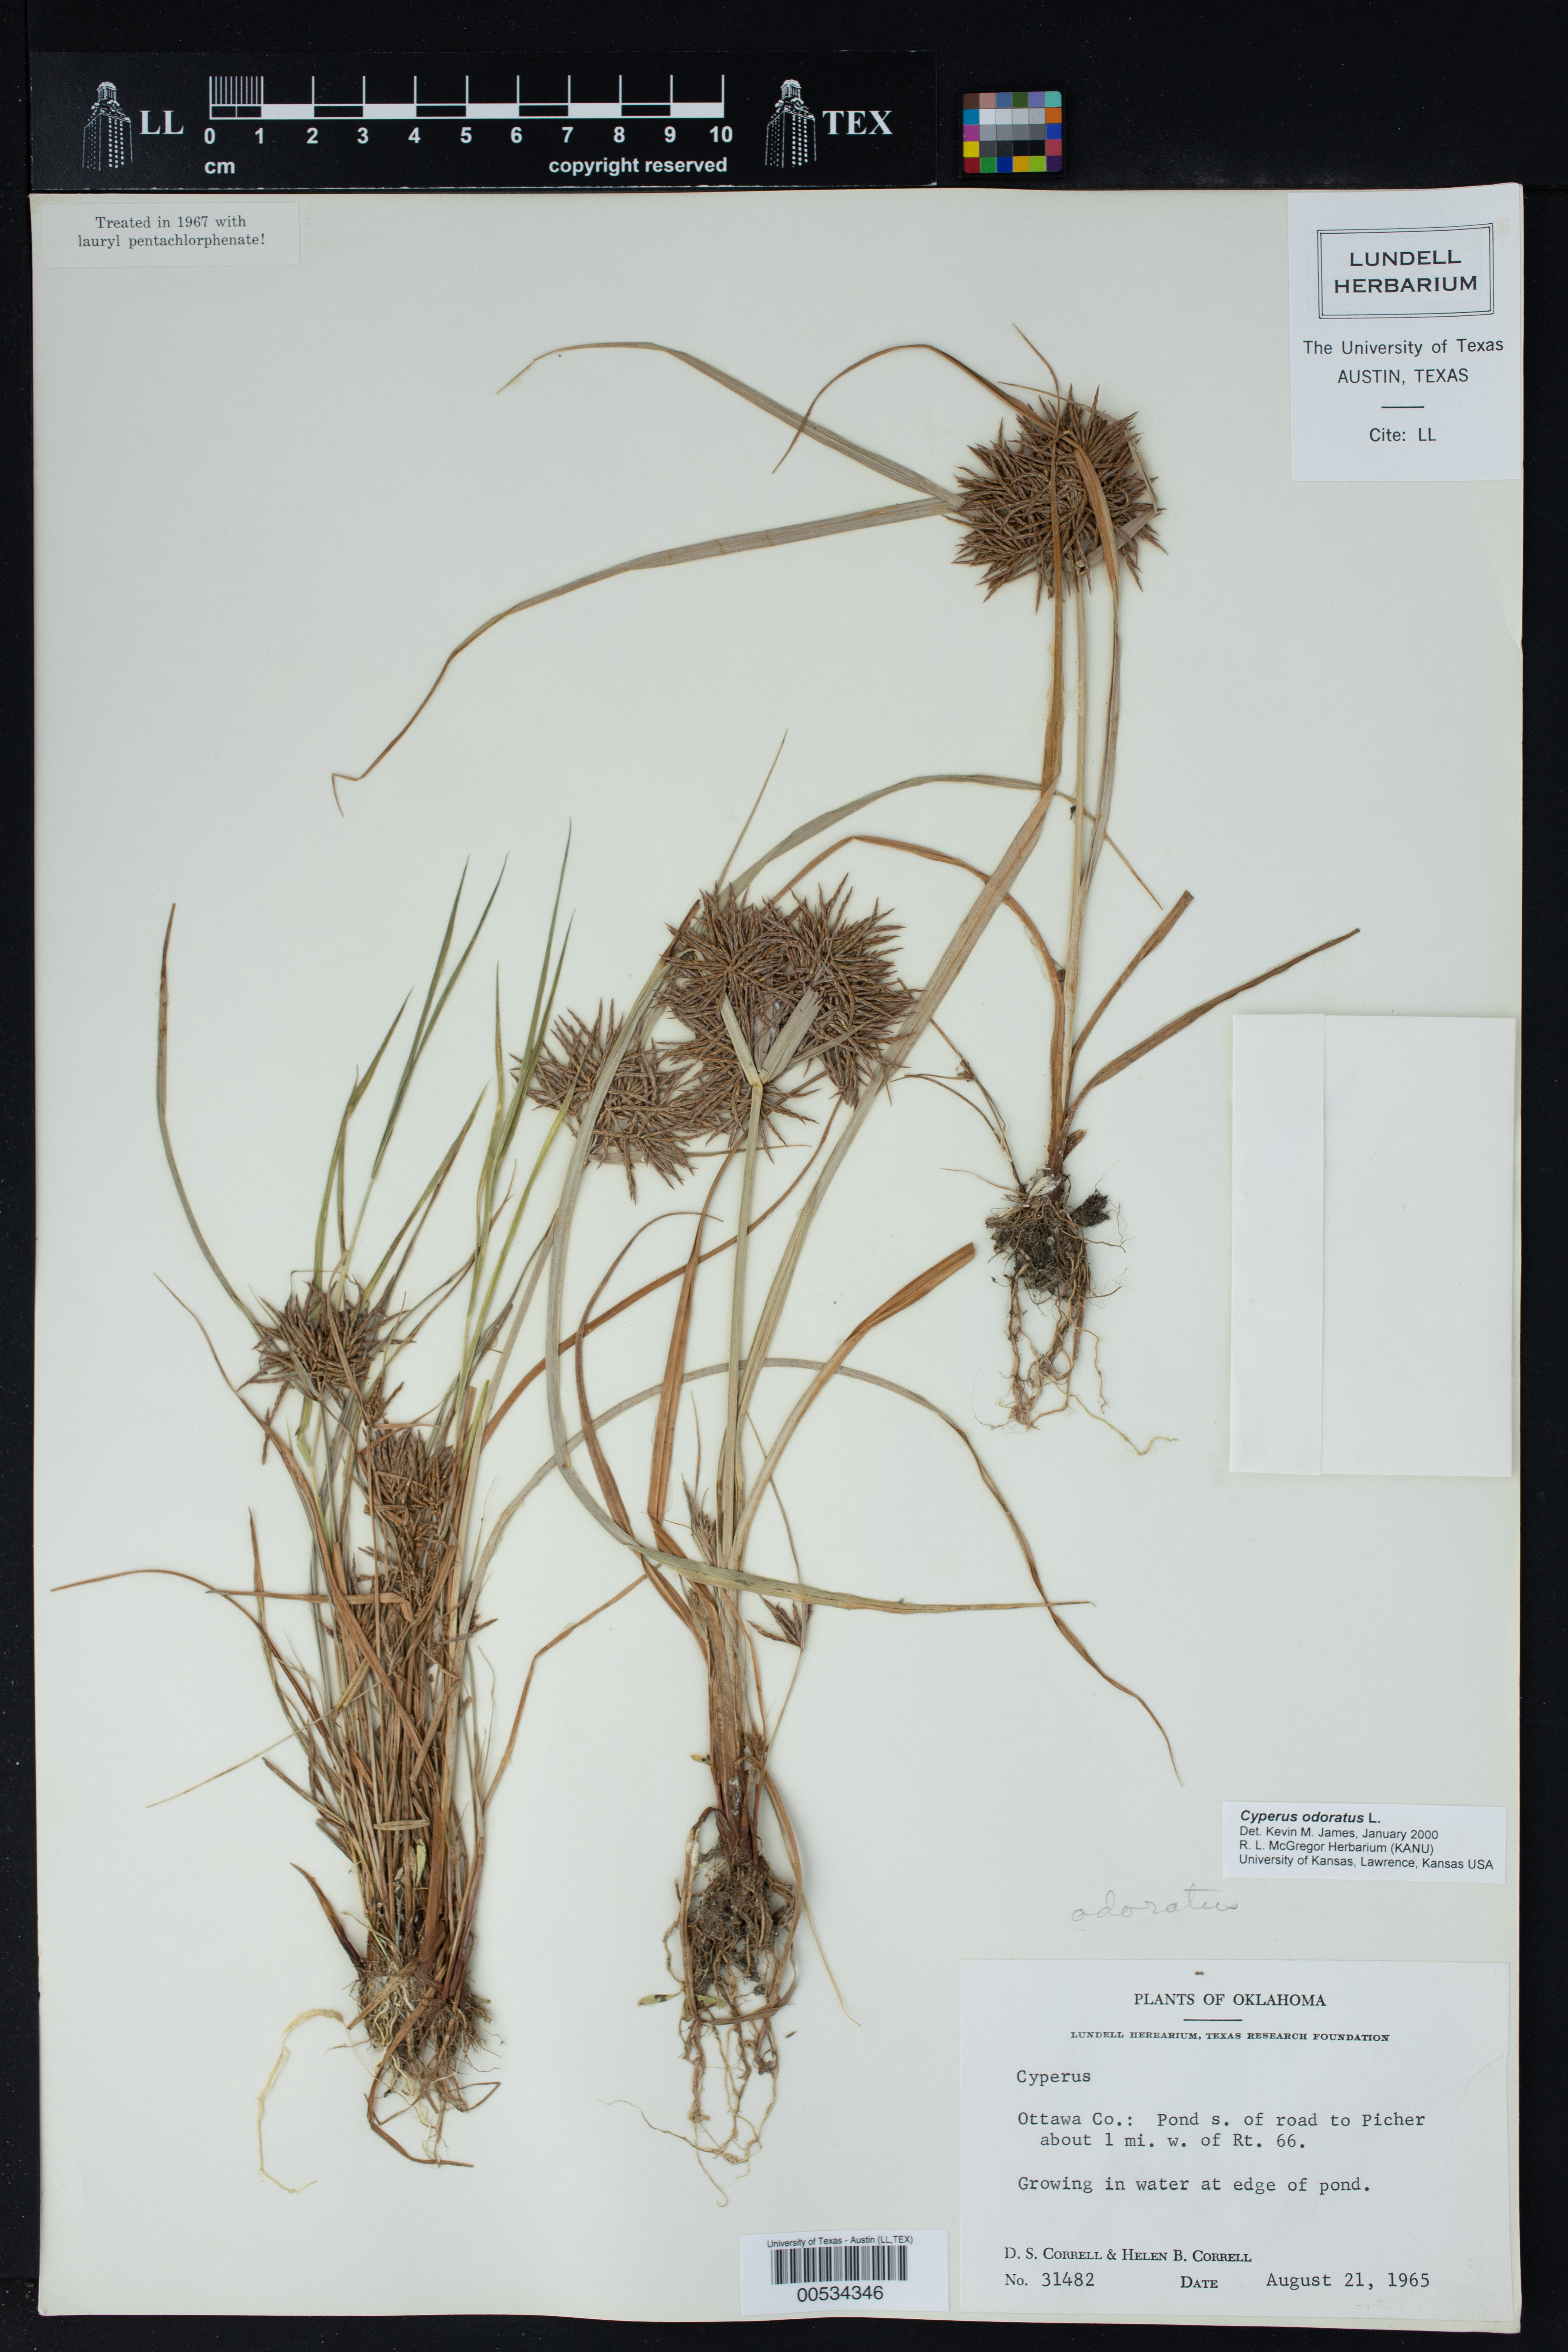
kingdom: Plantae
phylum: Tracheophyta
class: Liliopsida
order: Poales
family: Cyperaceae
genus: Cyperus
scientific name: Cyperus odoratus
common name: Fragrant flatsedge
